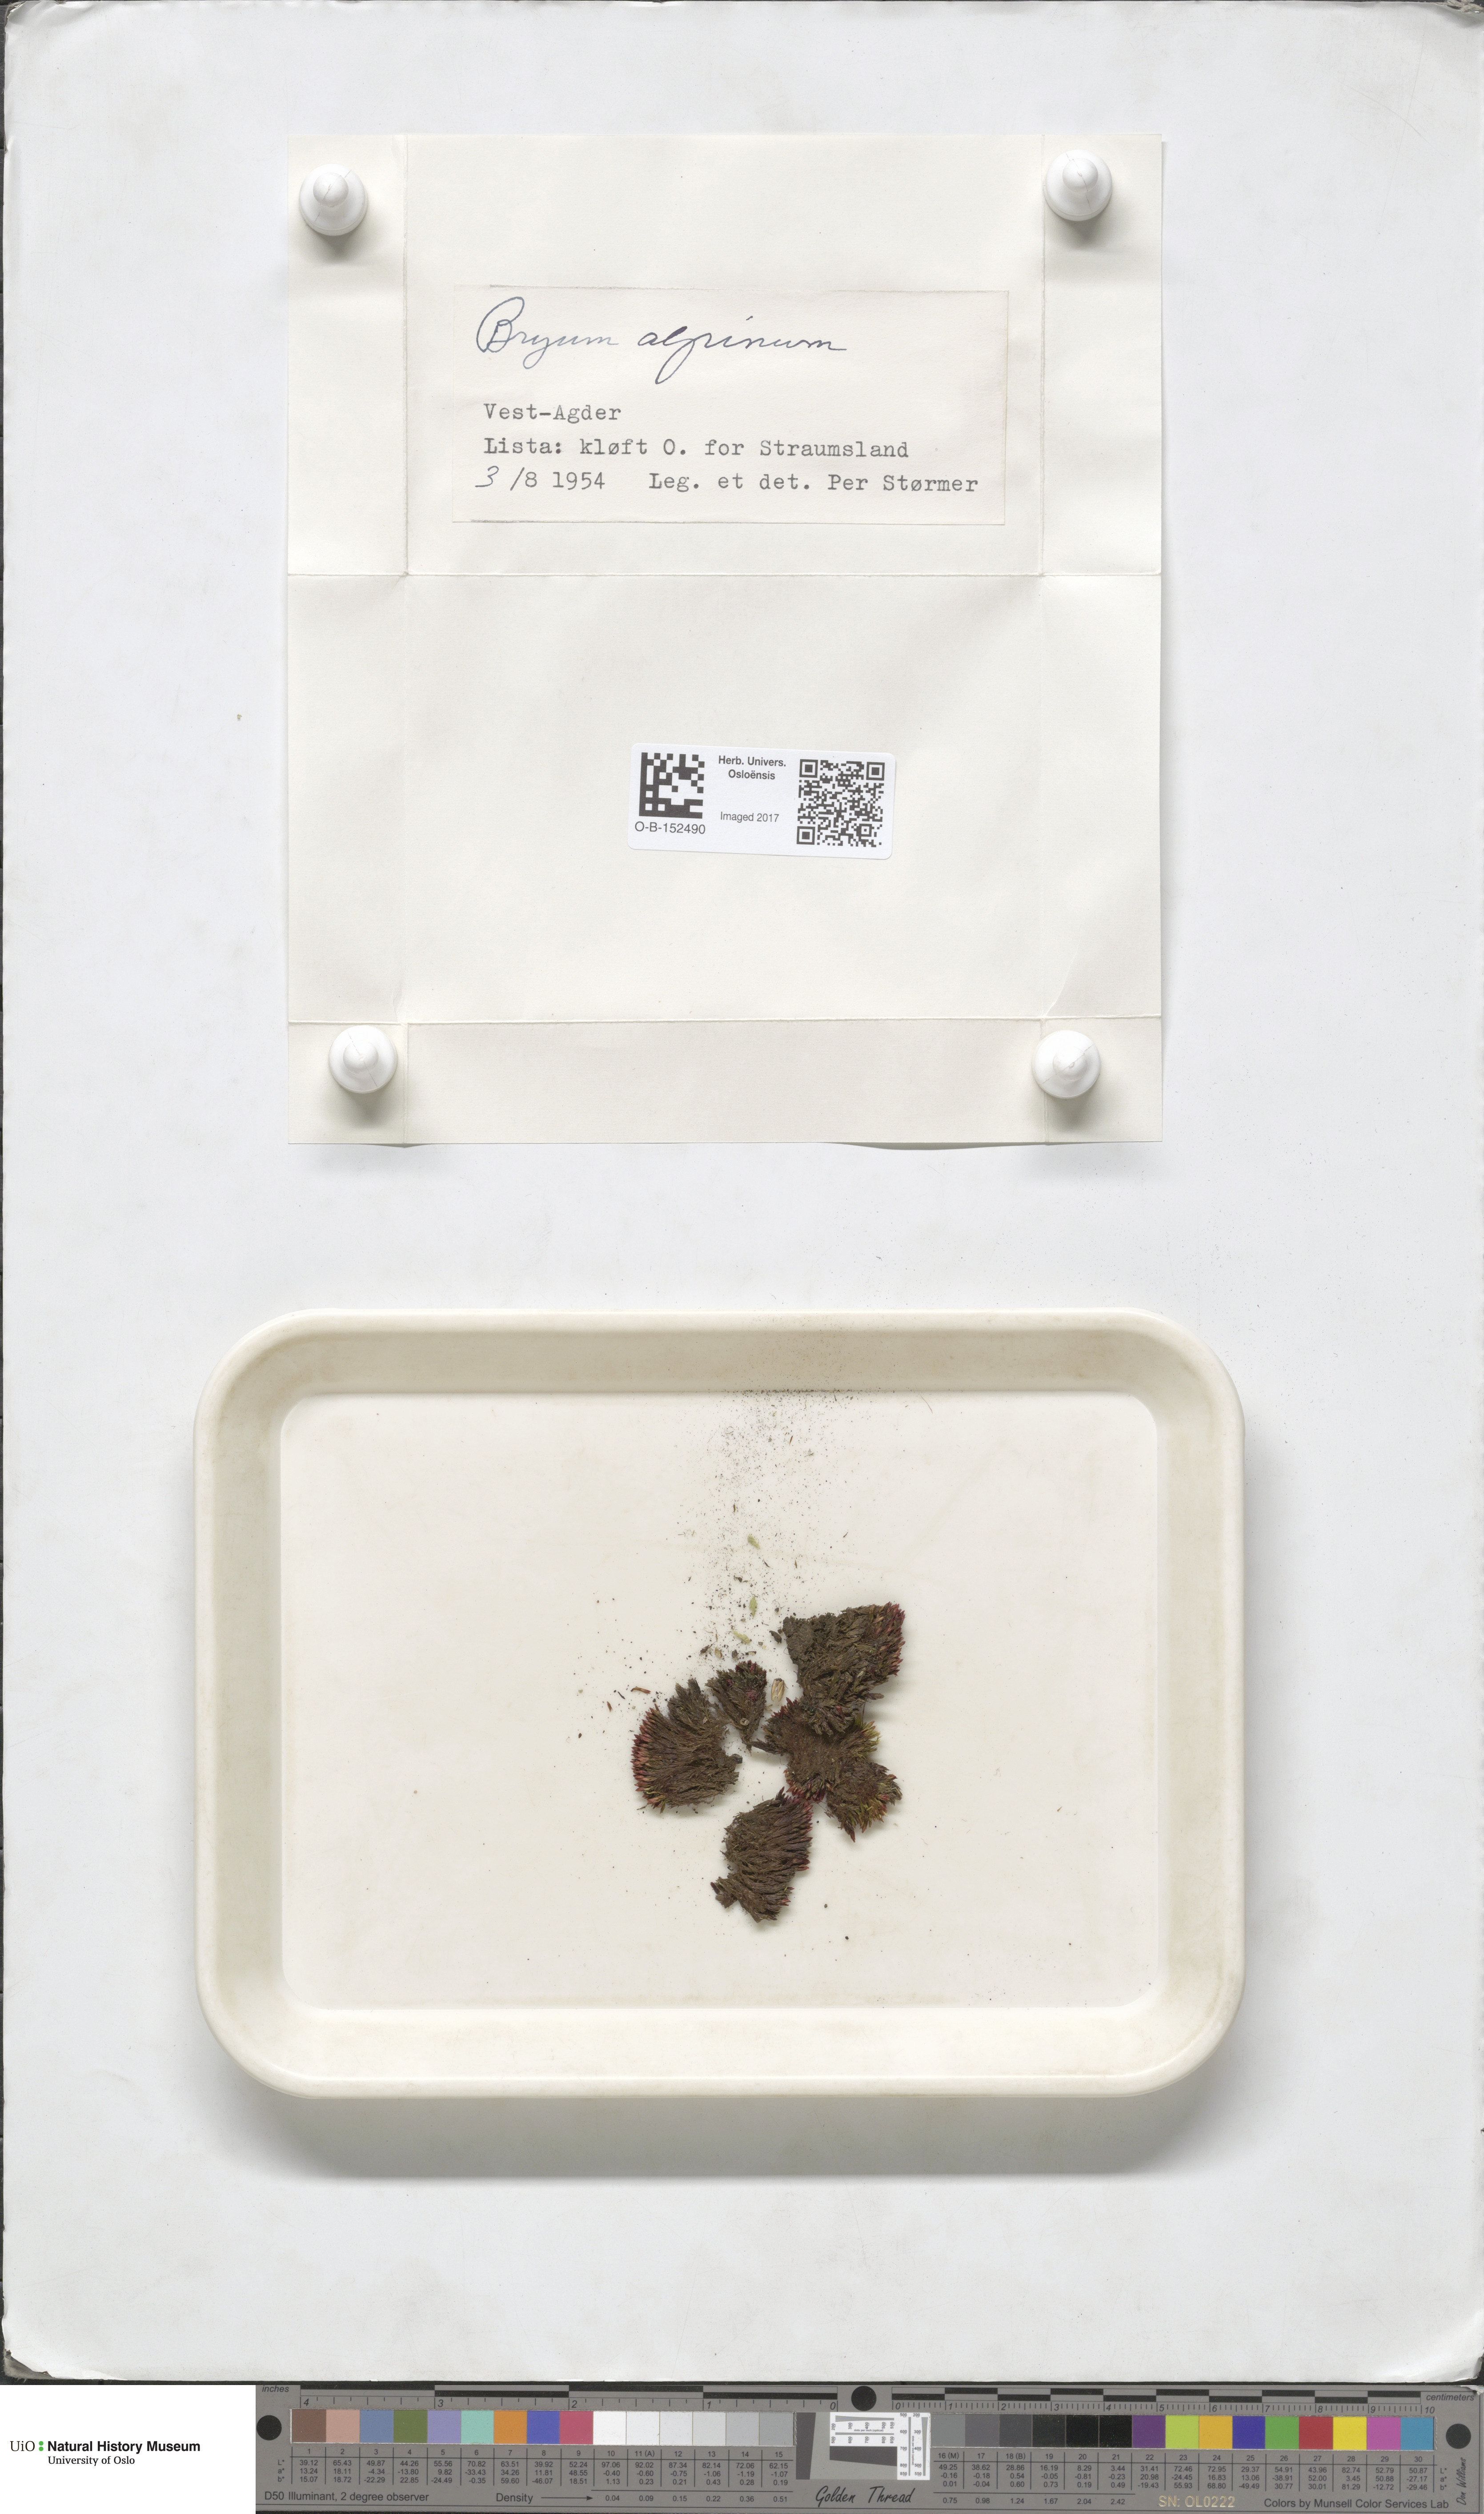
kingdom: Plantae
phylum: Bryophyta
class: Bryopsida
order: Bryales
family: Bryaceae
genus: Imbribryum
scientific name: Imbribryum alpinum
